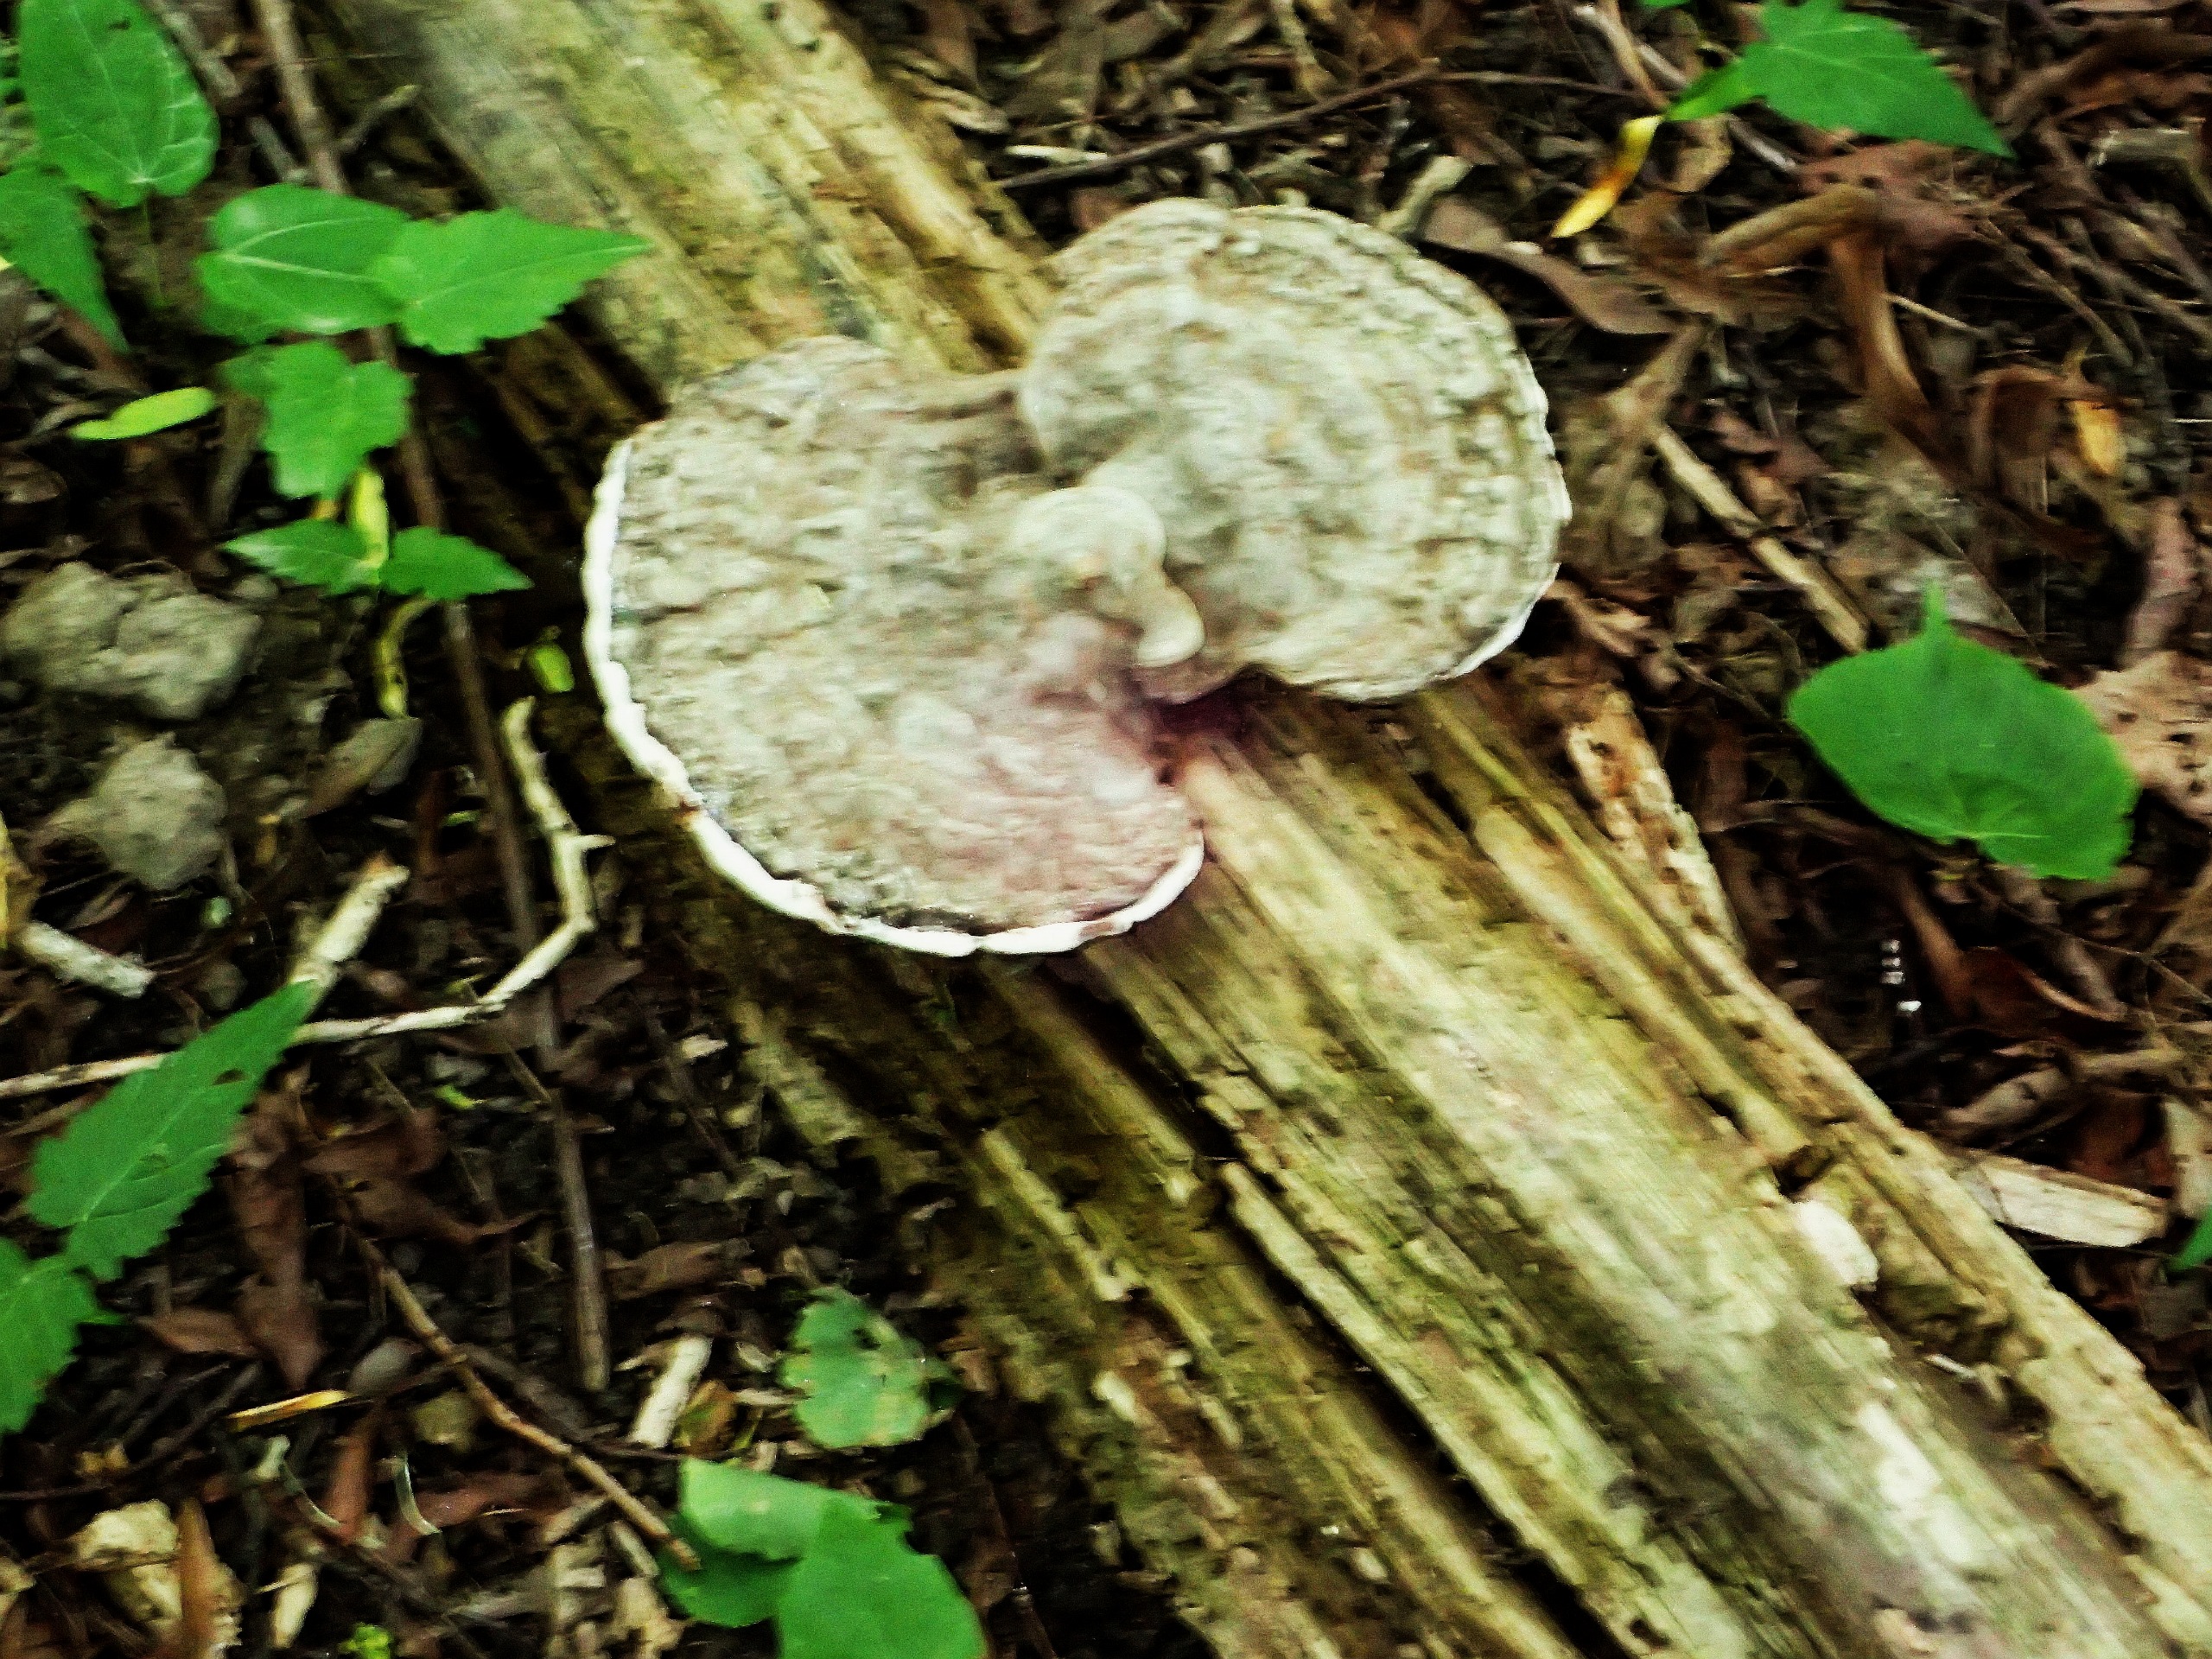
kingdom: Fungi
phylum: Basidiomycota
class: Agaricomycetes
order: Polyporales
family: Polyporaceae
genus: Ganoderma
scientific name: Ganoderma applanatum
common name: Flad lakporesvamp
